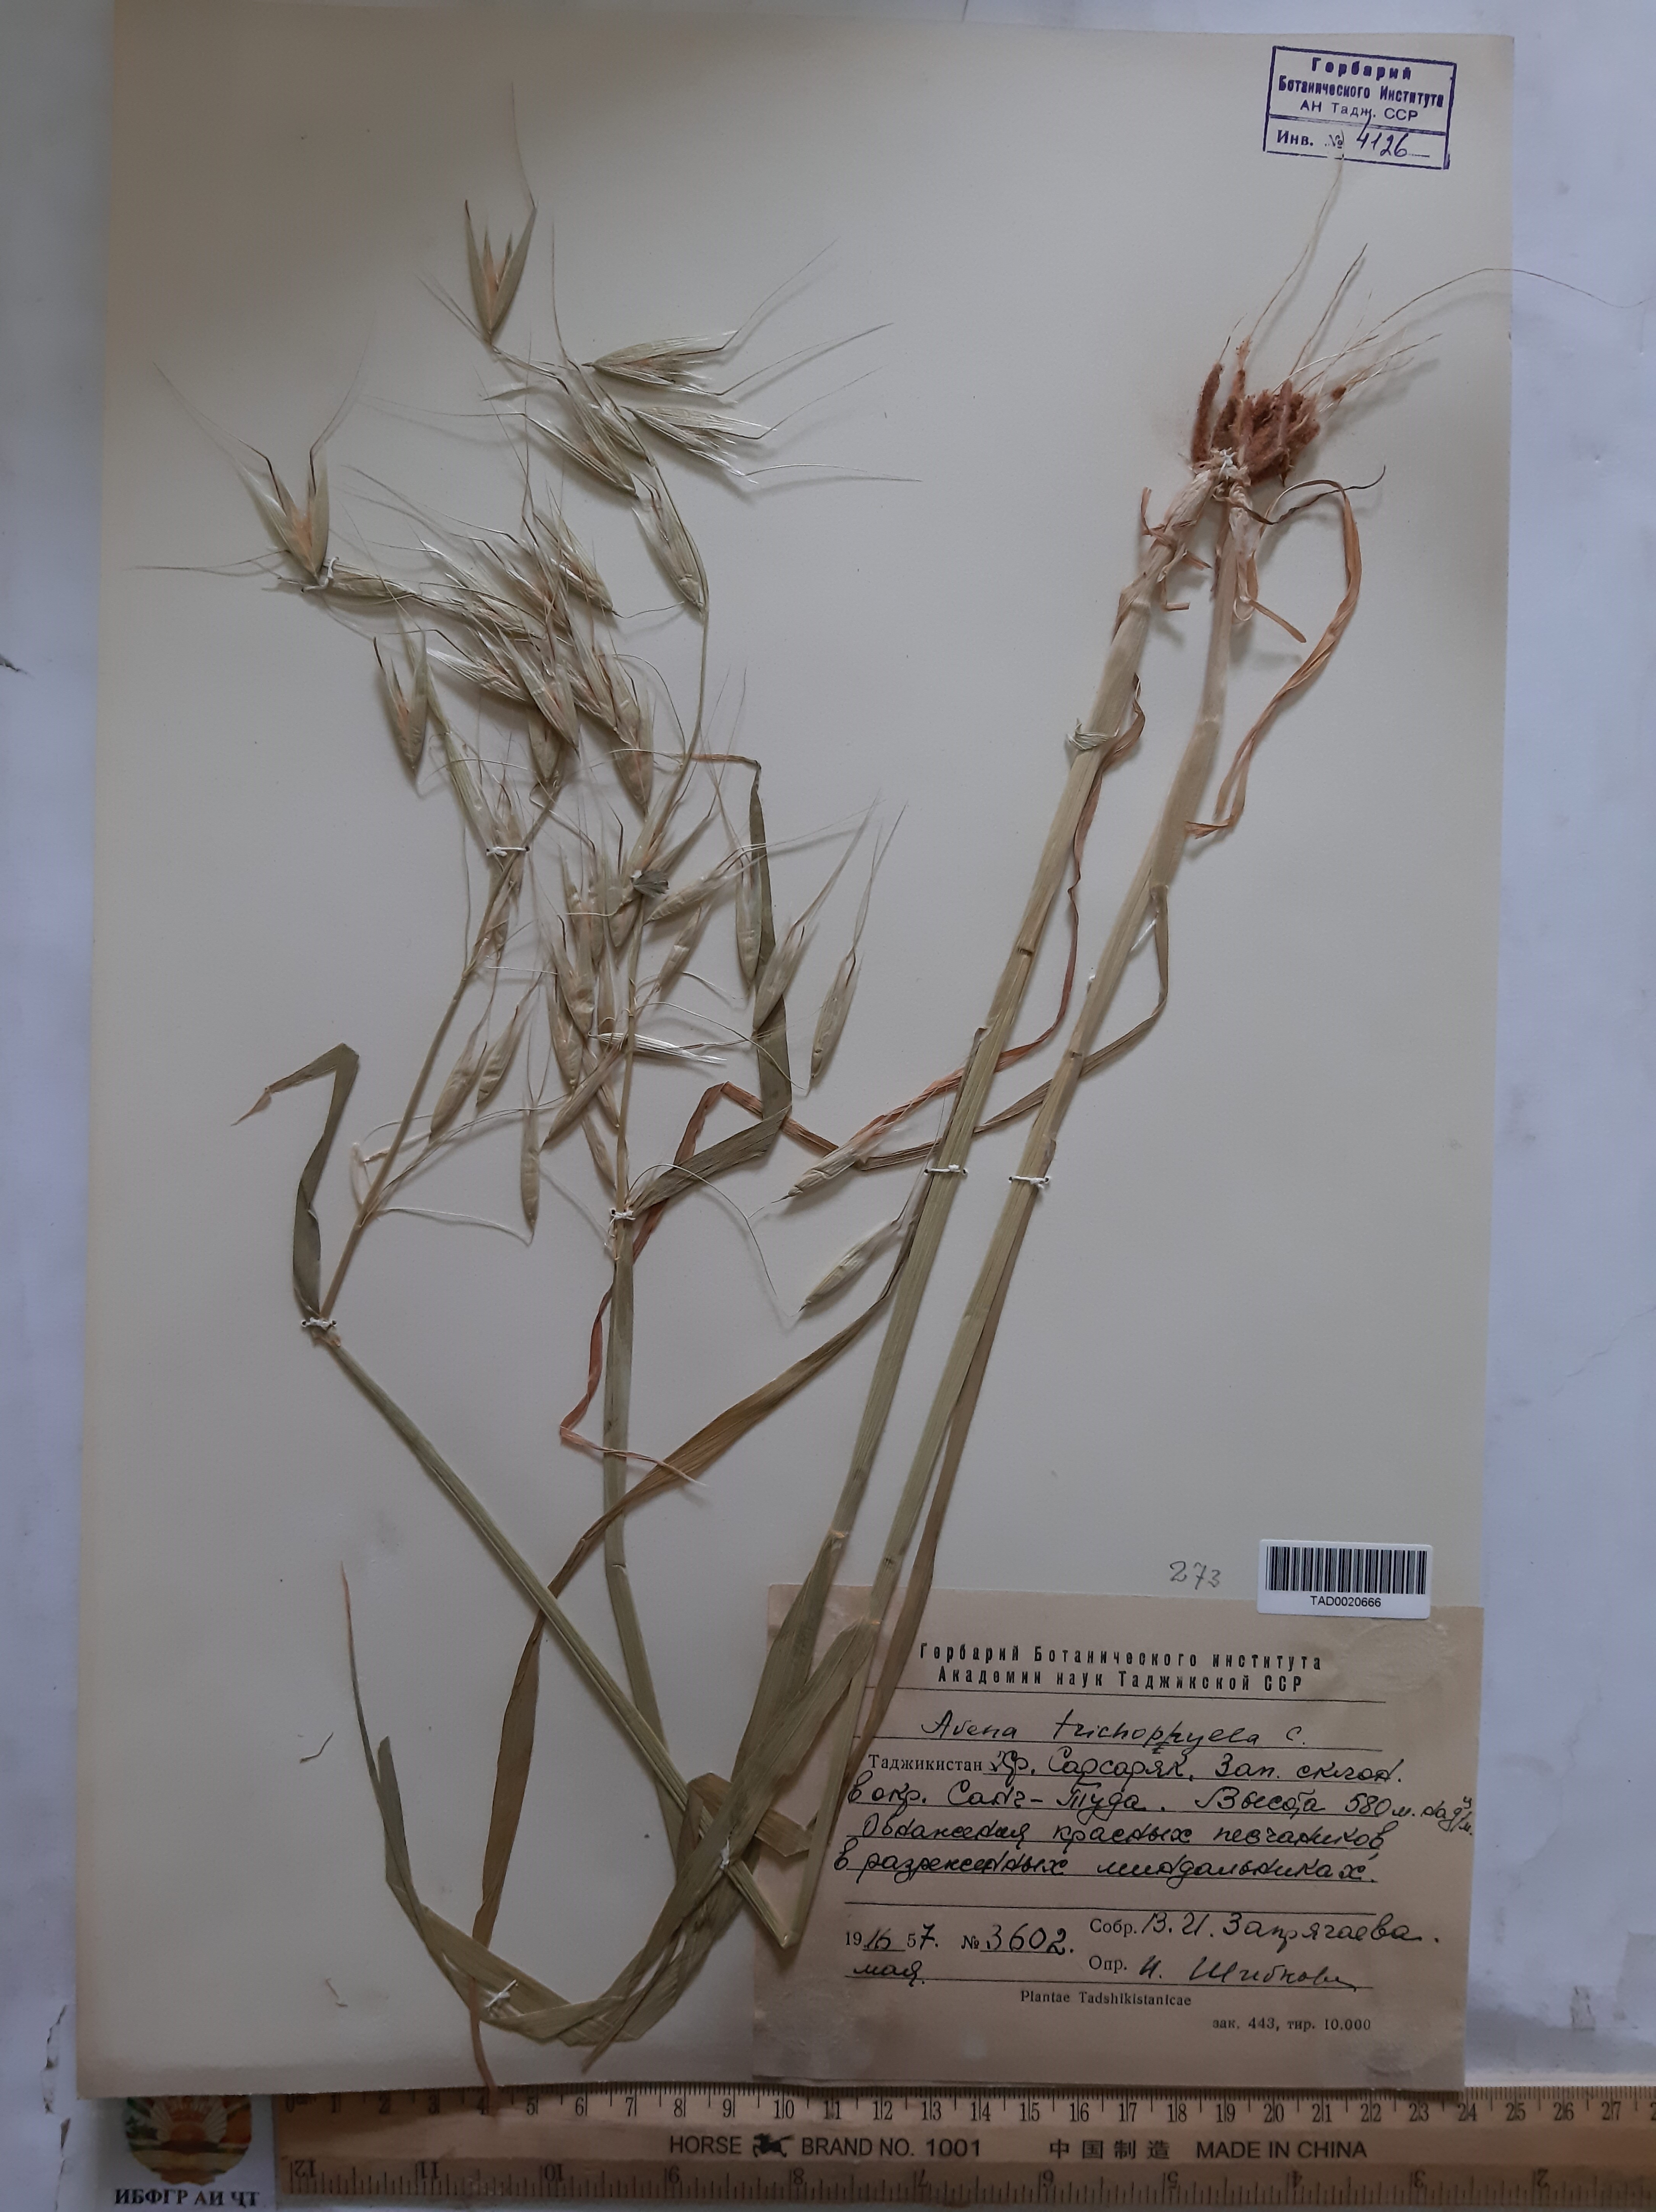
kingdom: Plantae
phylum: Tracheophyta
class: Liliopsida
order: Poales
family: Poaceae
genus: Avena
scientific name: Avena sterilis
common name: Animated oat
